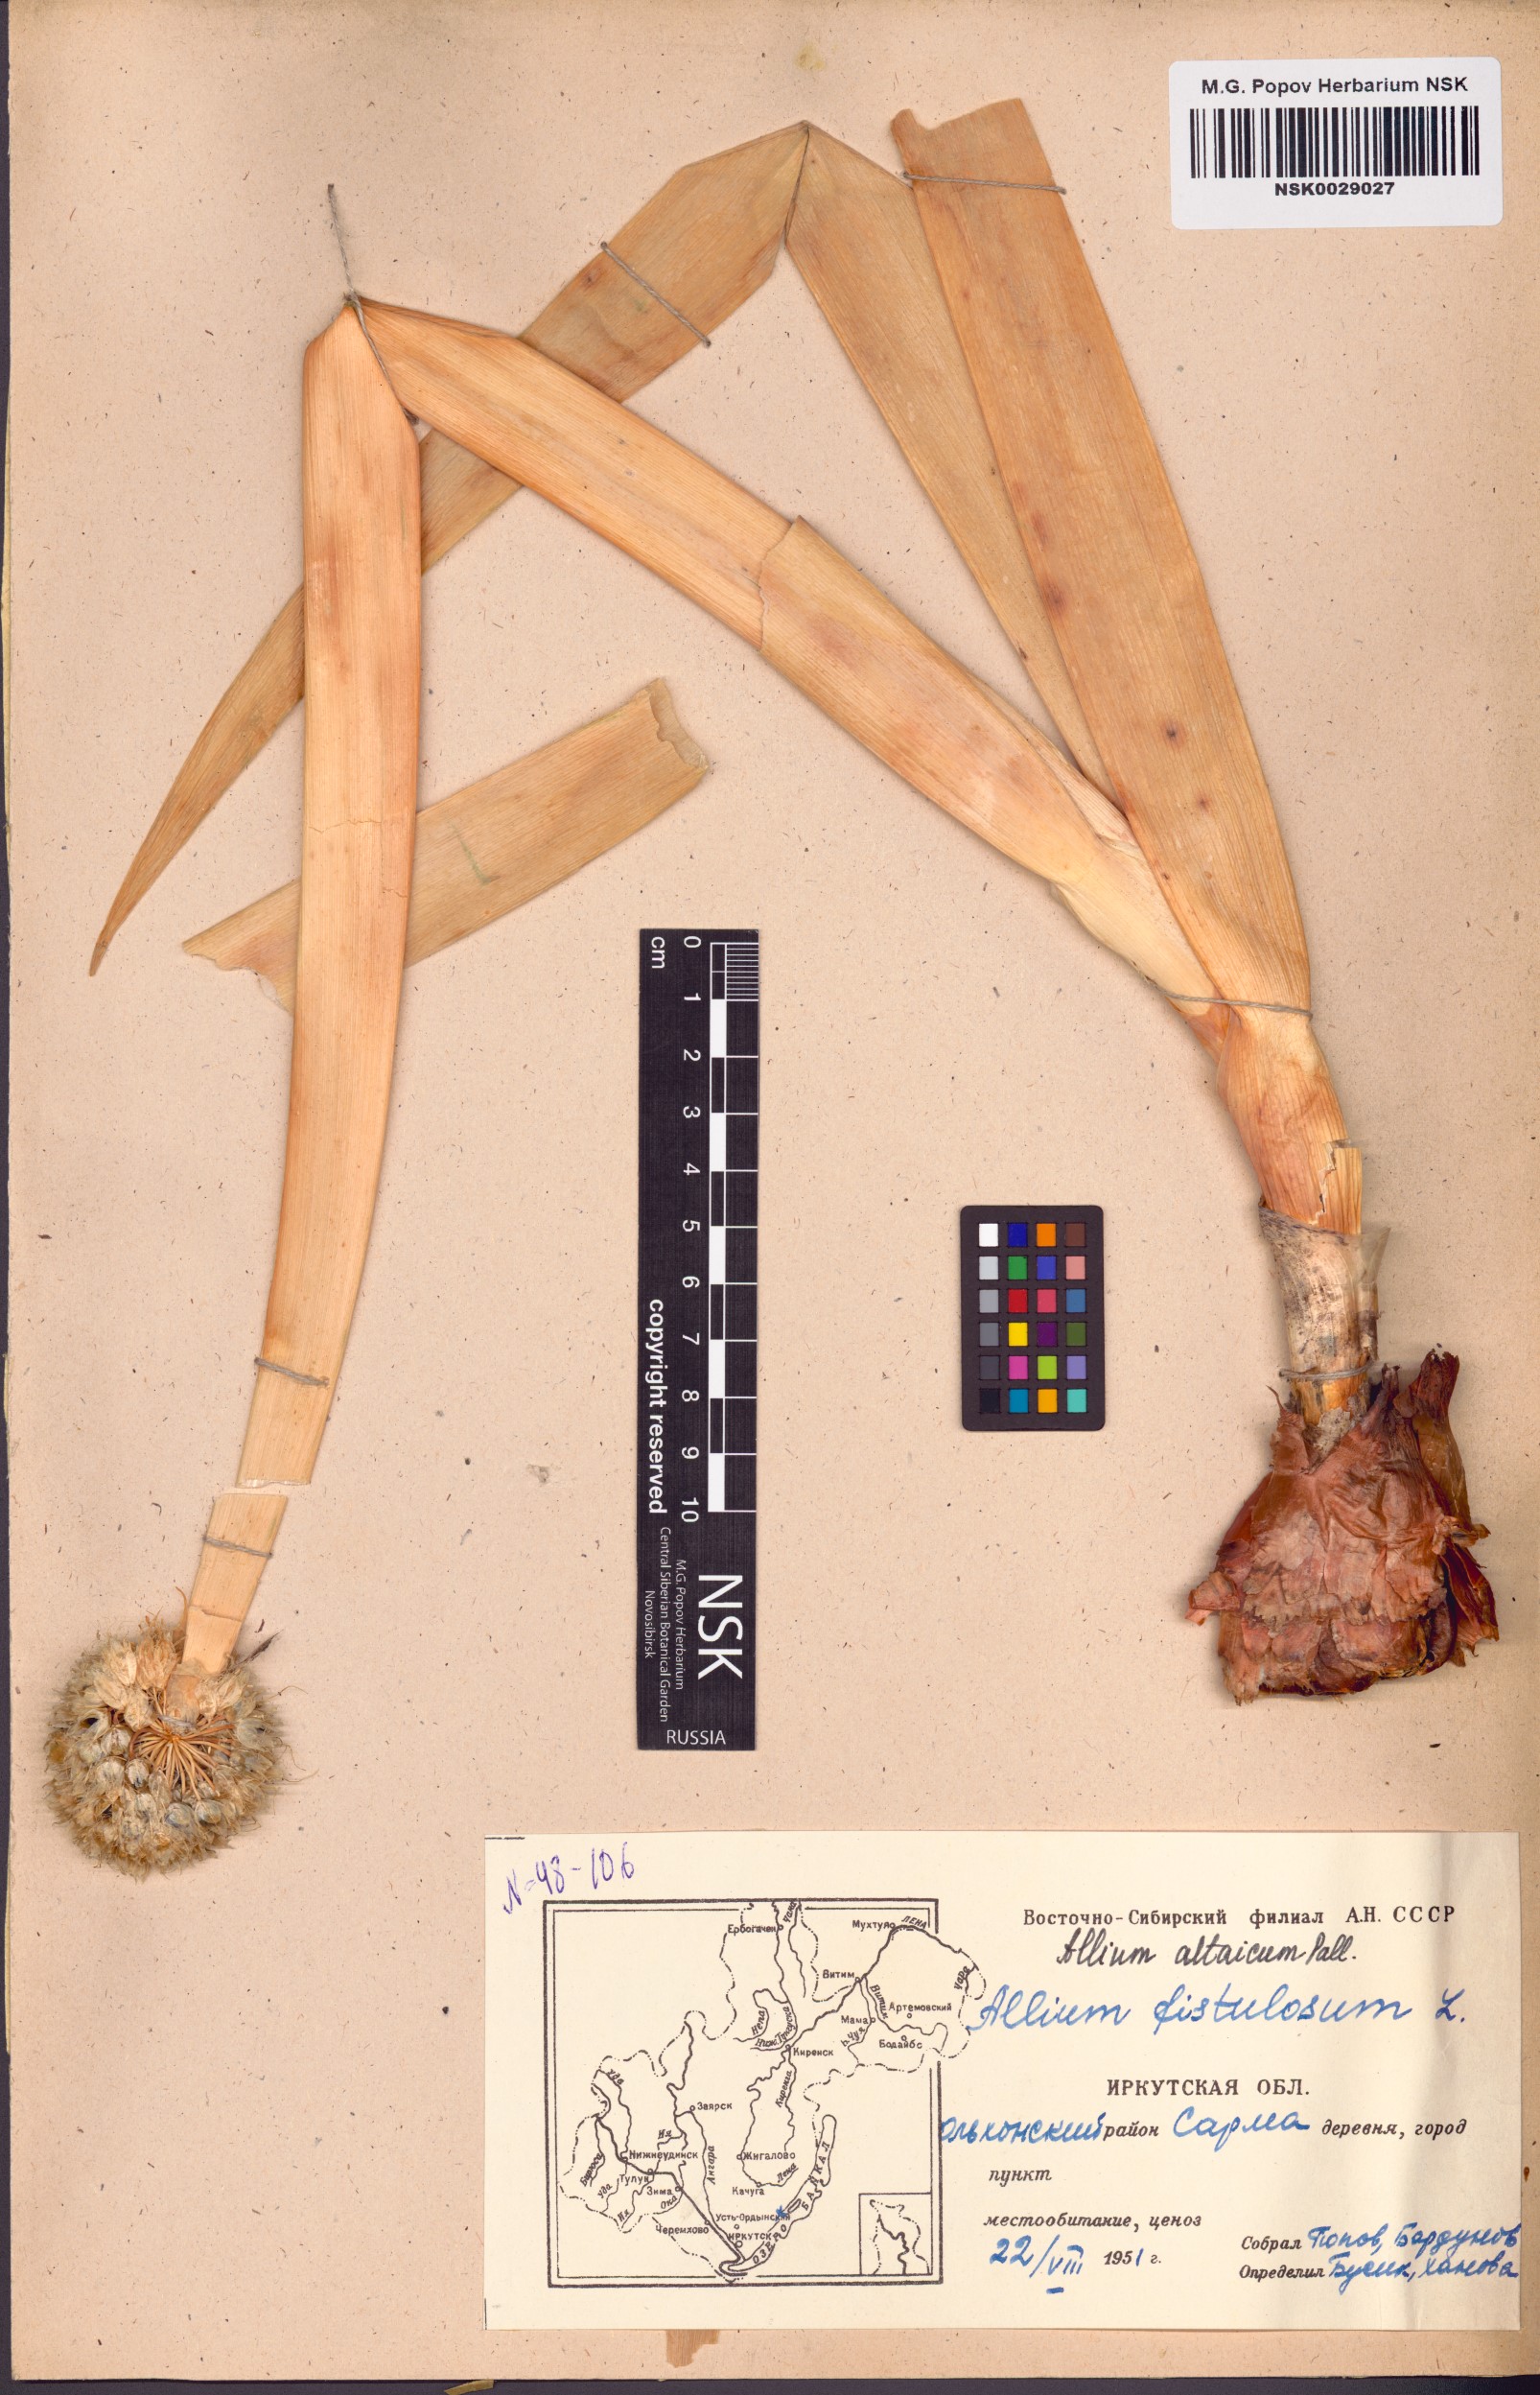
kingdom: Plantae
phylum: Tracheophyta
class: Liliopsida
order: Asparagales
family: Amaryllidaceae
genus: Allium
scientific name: Allium altaicum
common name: Altai onion
